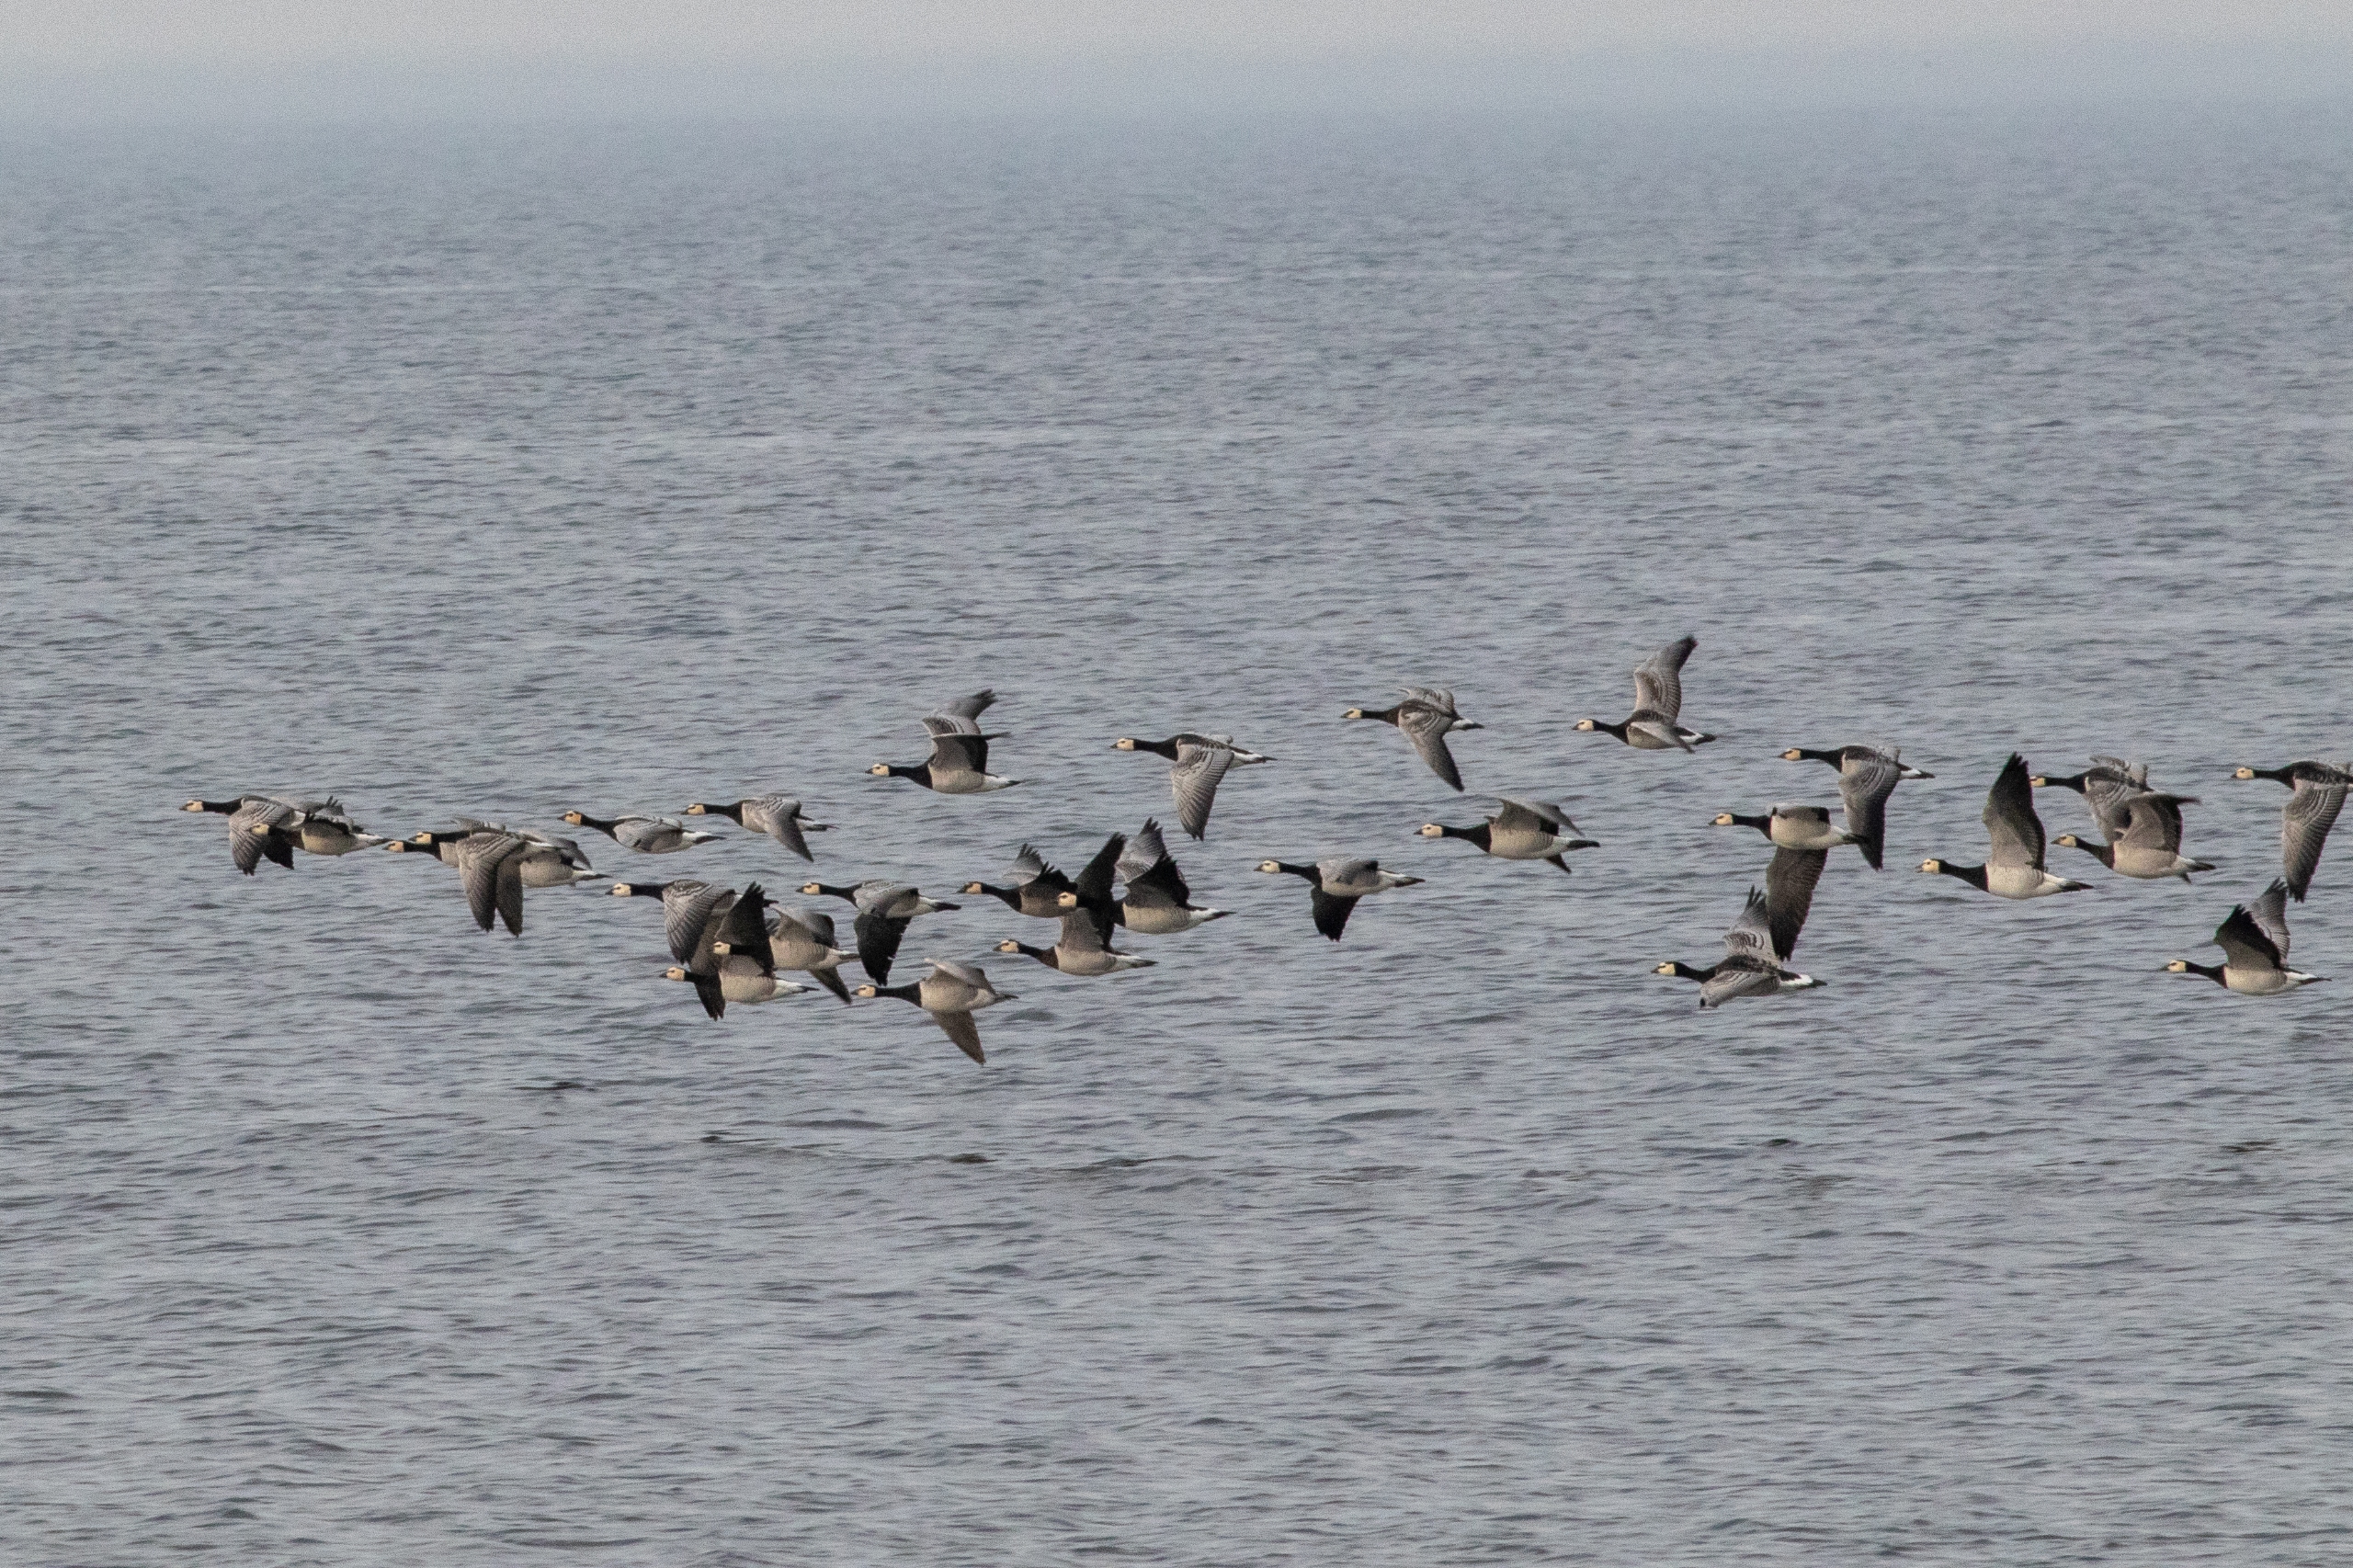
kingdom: Animalia
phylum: Chordata
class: Aves
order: Anseriformes
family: Anatidae
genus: Branta
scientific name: Branta leucopsis
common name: Bramgås
